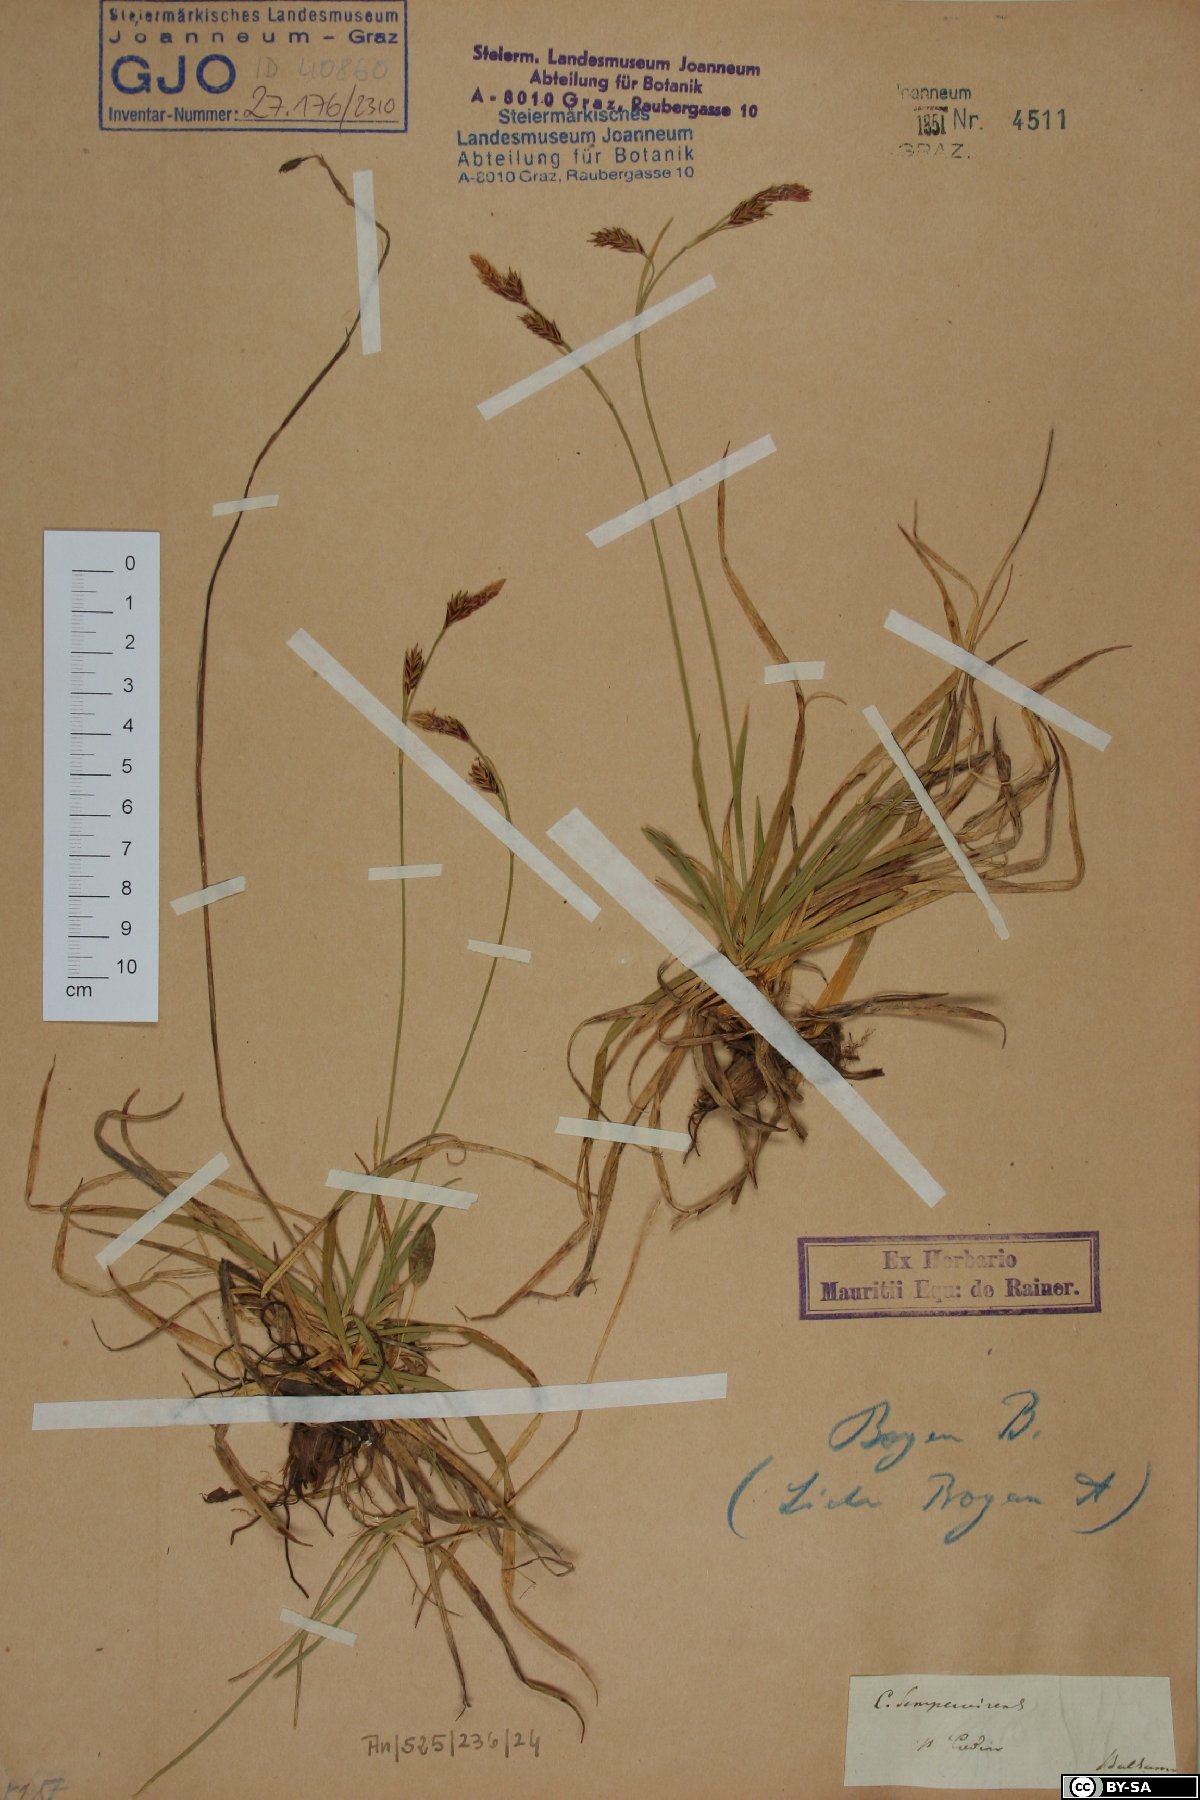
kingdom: Plantae
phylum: Tracheophyta
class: Liliopsida
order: Poales
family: Cyperaceae
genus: Carex
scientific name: Carex sempervirens
